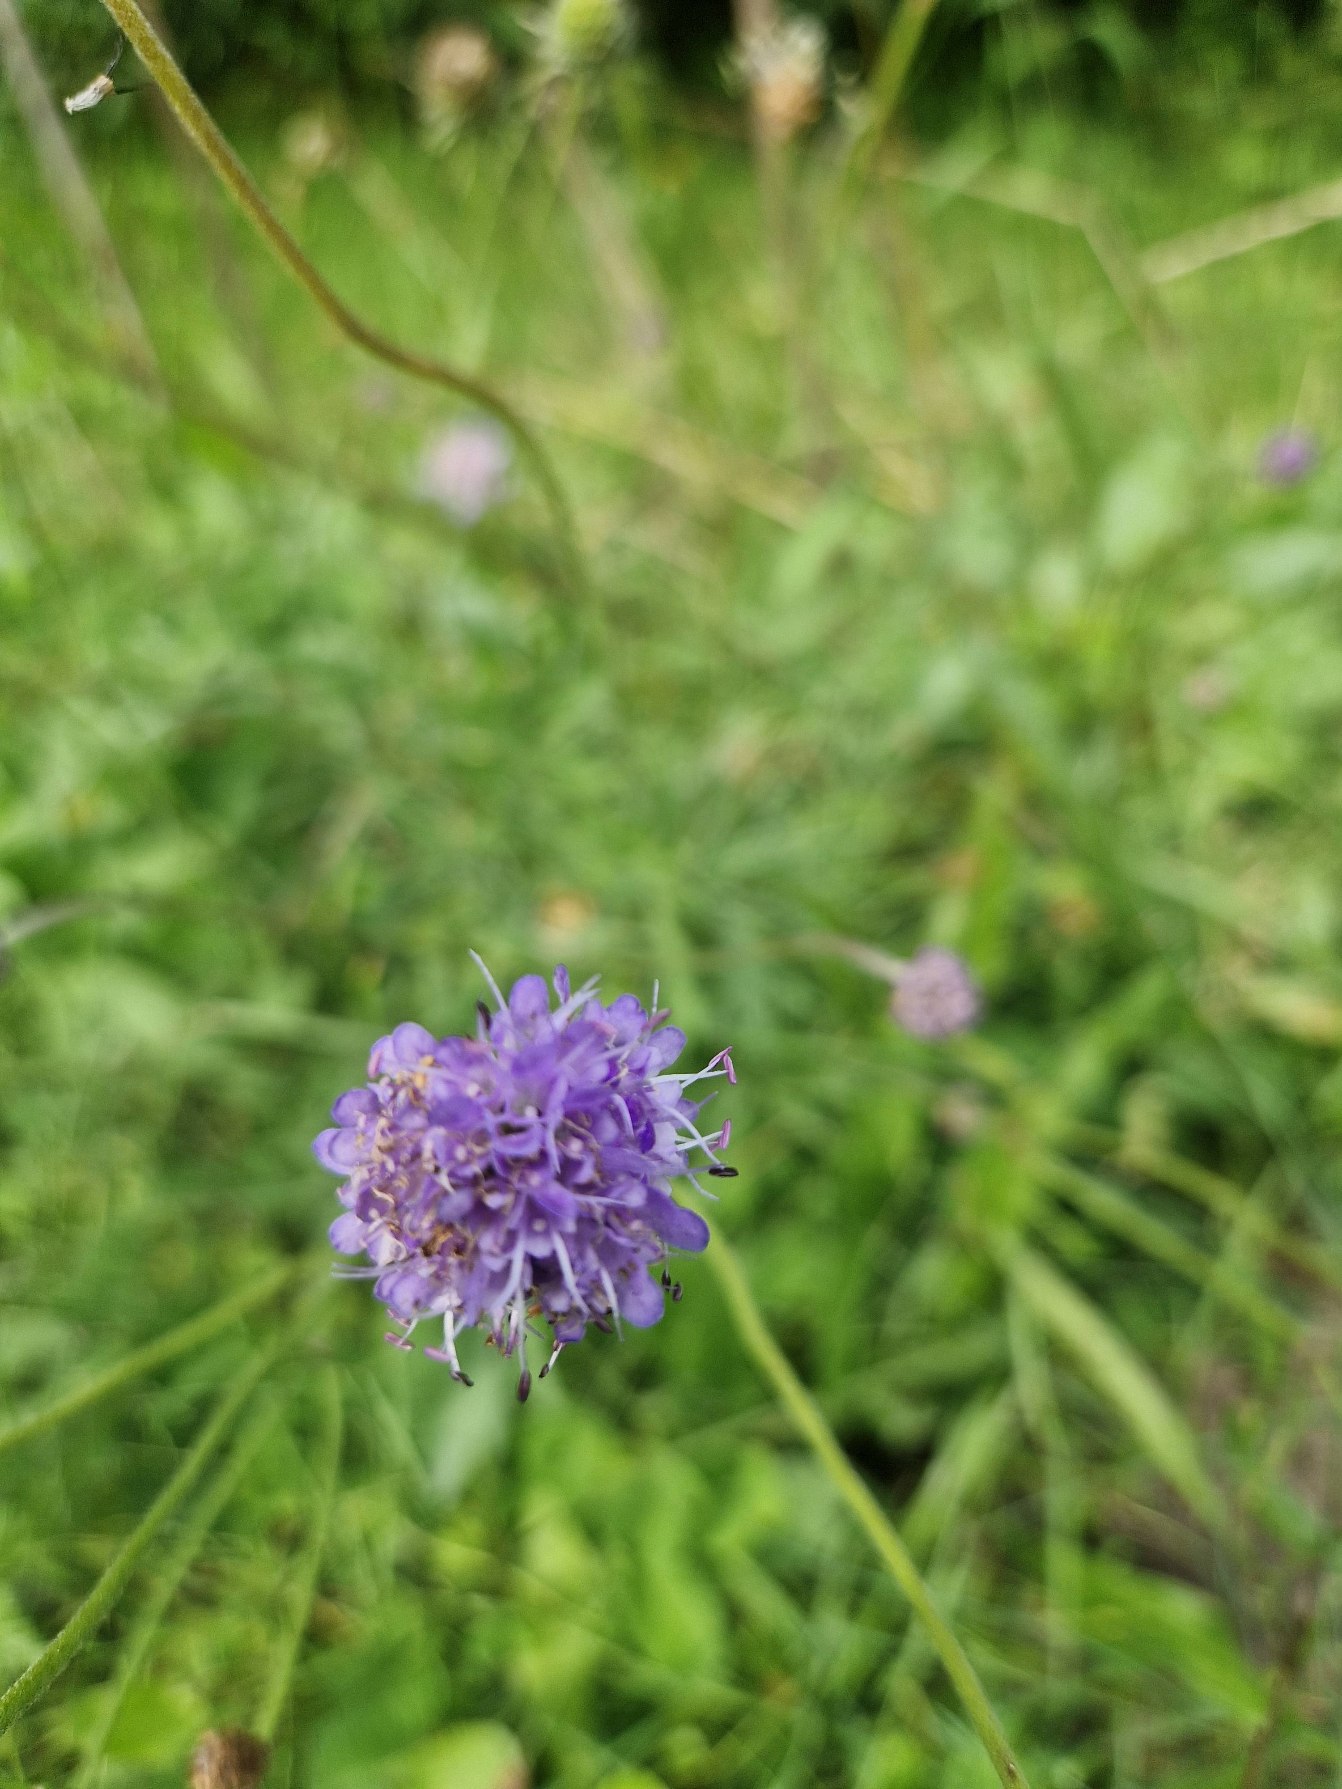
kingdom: Plantae
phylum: Tracheophyta
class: Magnoliopsida
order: Dipsacales
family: Caprifoliaceae
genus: Succisa
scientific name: Succisa pratensis
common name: Djævelsbid
